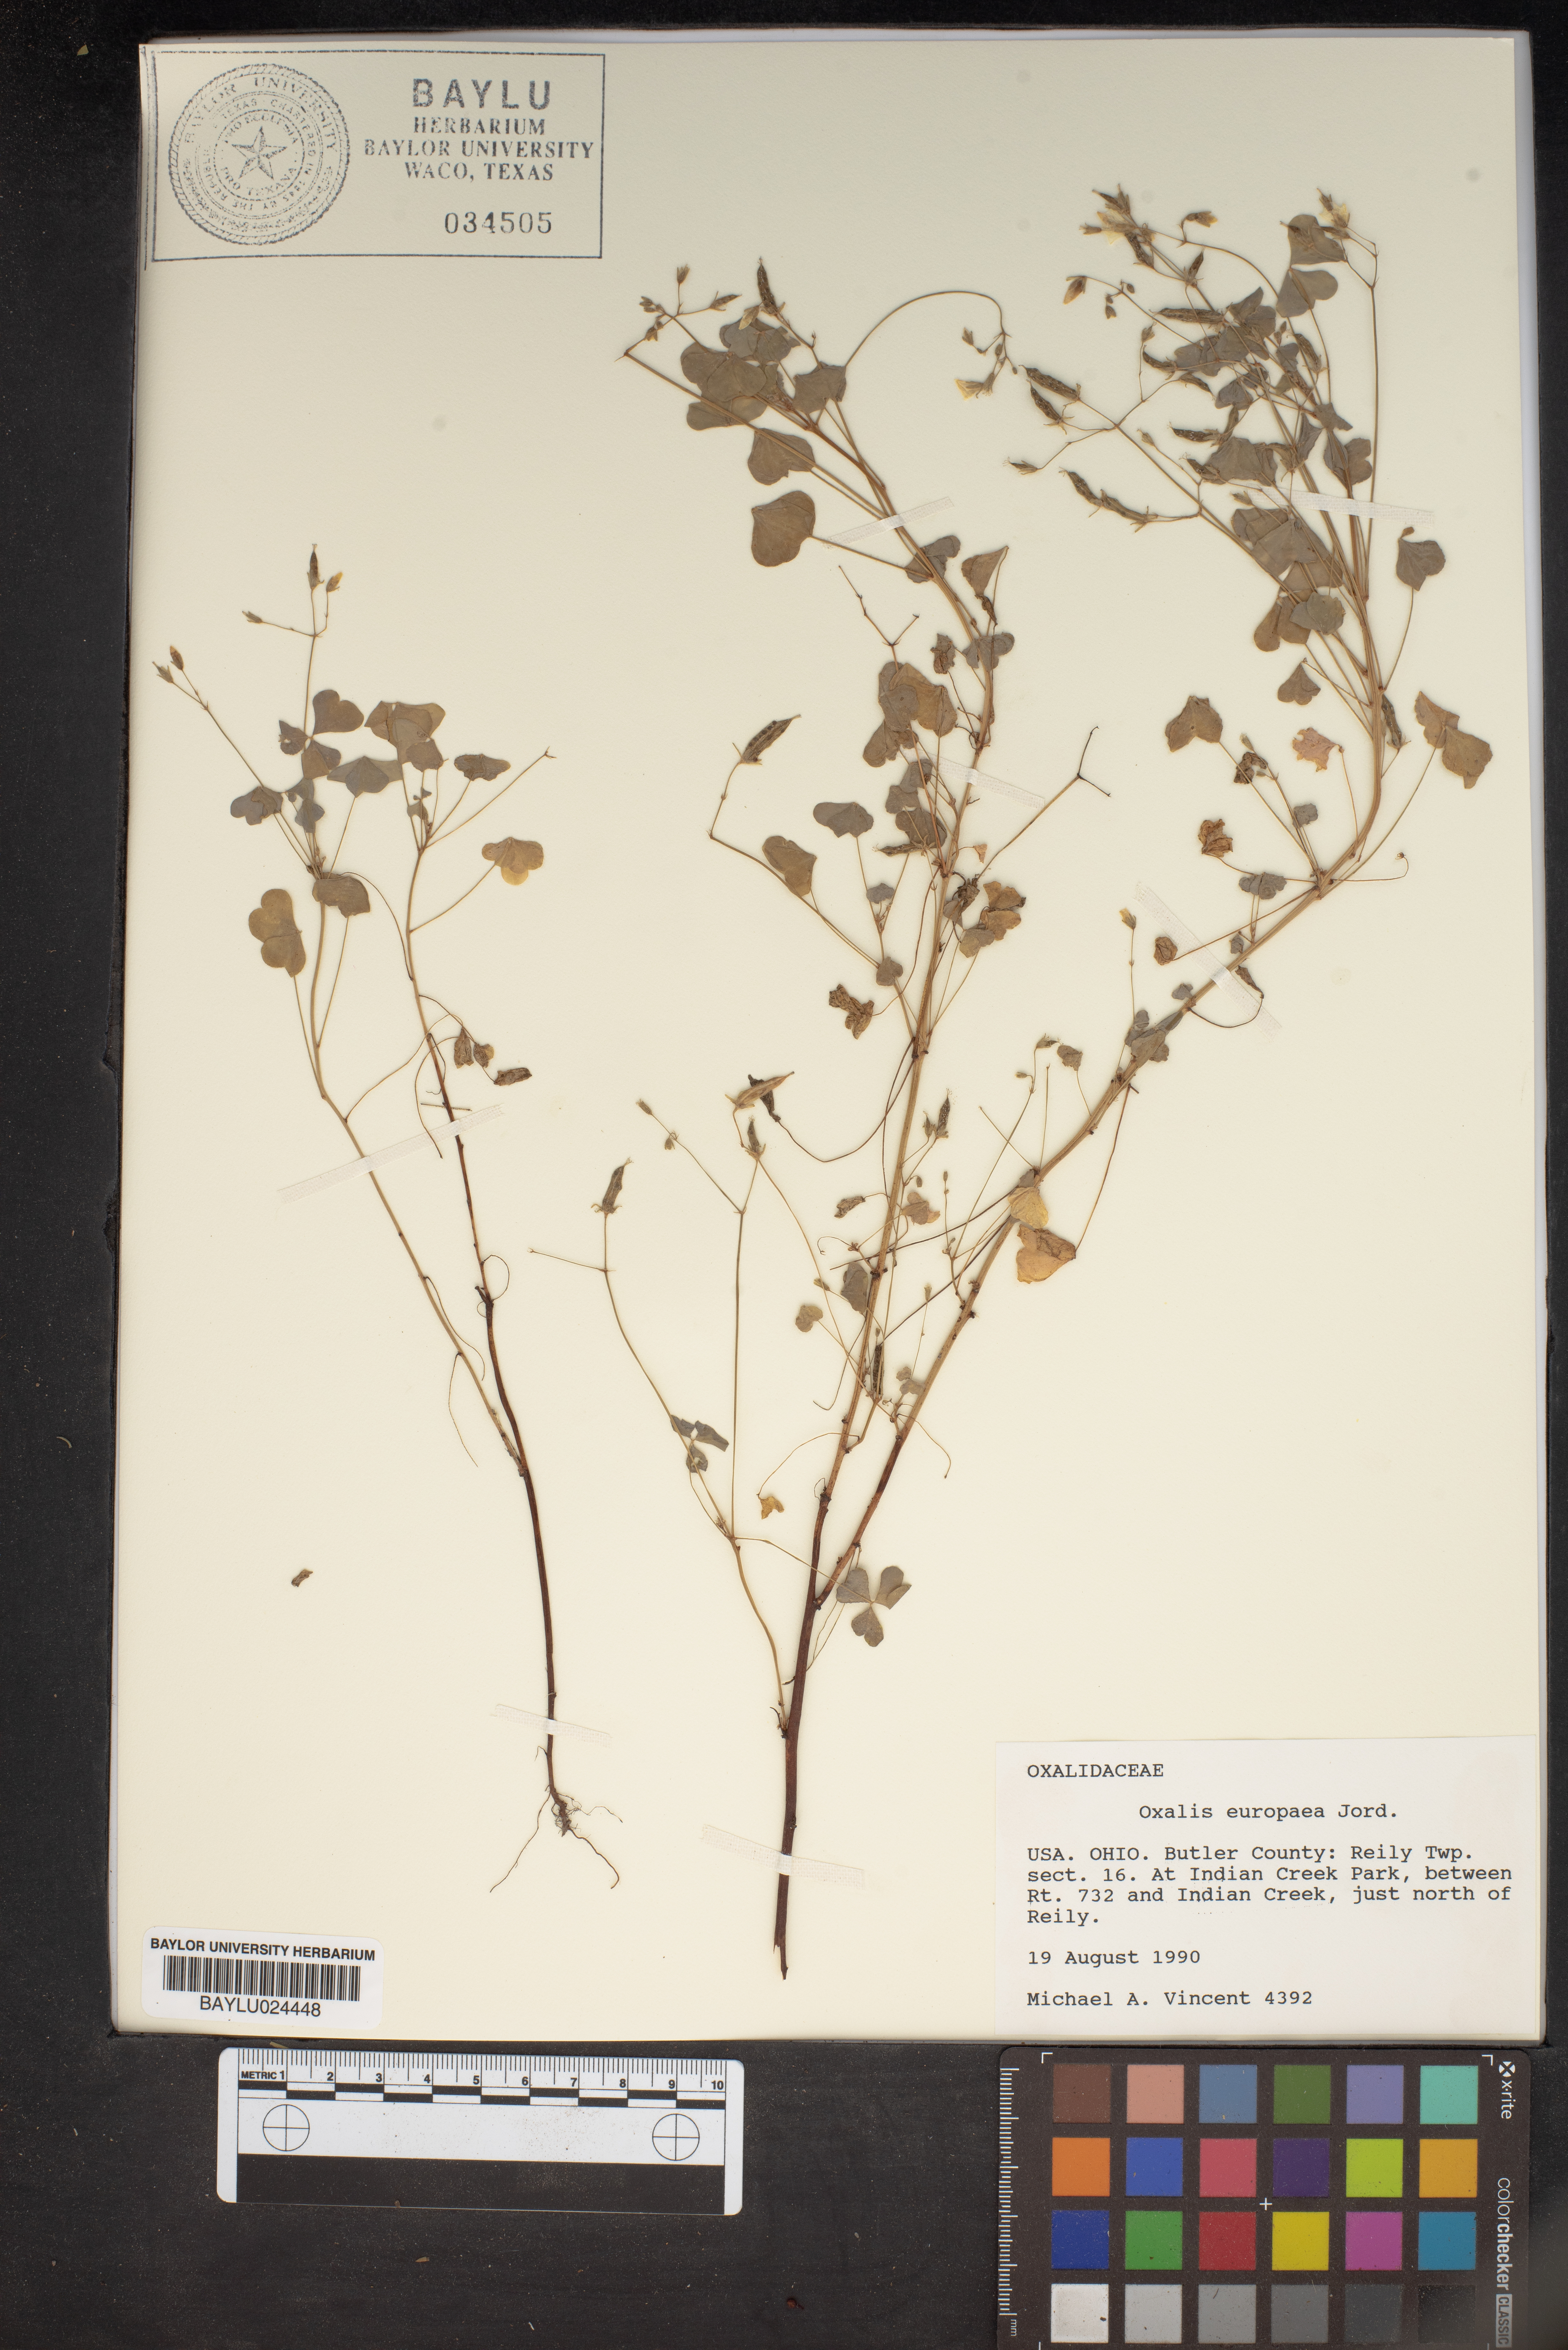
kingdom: Plantae
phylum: Tracheophyta
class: Magnoliopsida
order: Oxalidales
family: Oxalidaceae
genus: Oxalis
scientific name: Oxalis stricta
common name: Upright yellow-sorrel
